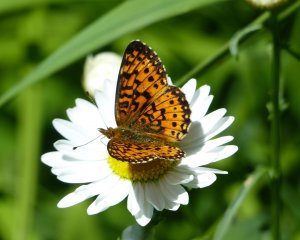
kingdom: Animalia
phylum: Arthropoda
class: Insecta
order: Lepidoptera
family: Nymphalidae
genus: Boloria
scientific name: Boloria selene
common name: Silver-bordered Fritillary
